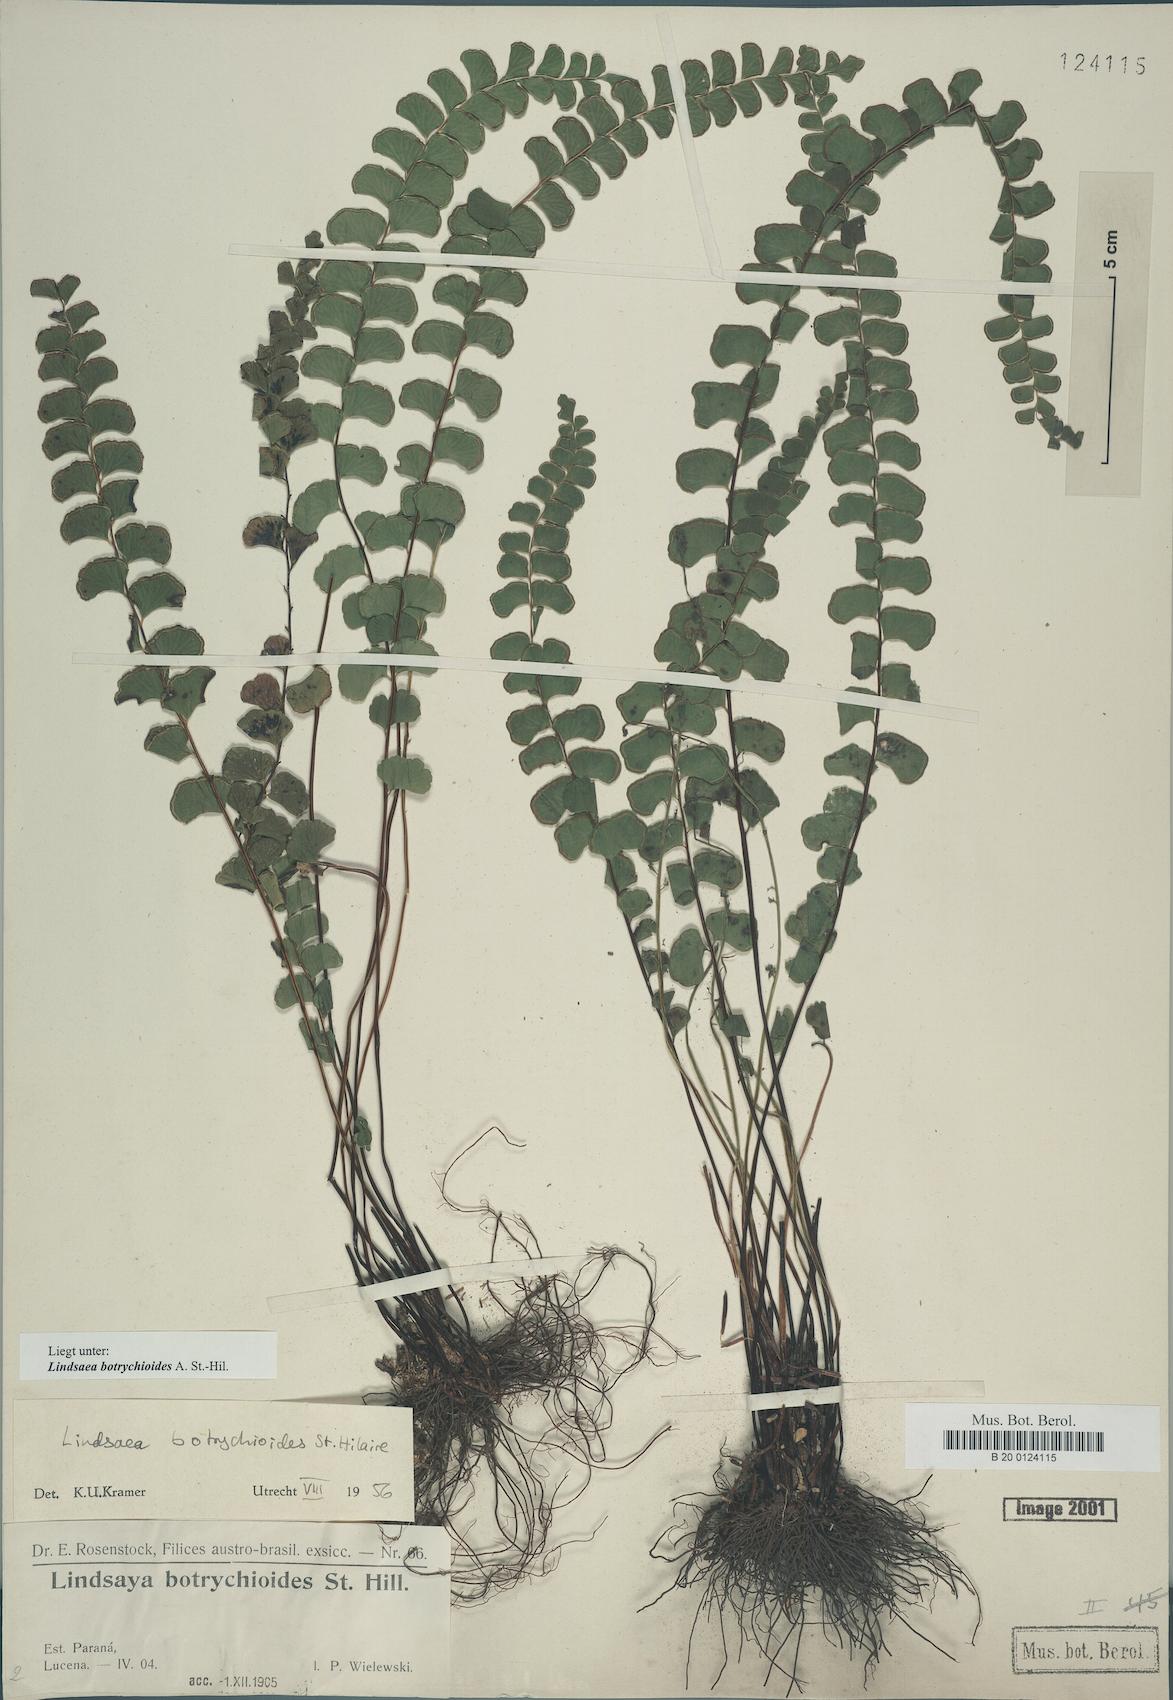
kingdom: Plantae
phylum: Tracheophyta
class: Polypodiopsida
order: Polypodiales
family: Lindsaeaceae
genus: Lindsaea
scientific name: Lindsaea botrychioides
